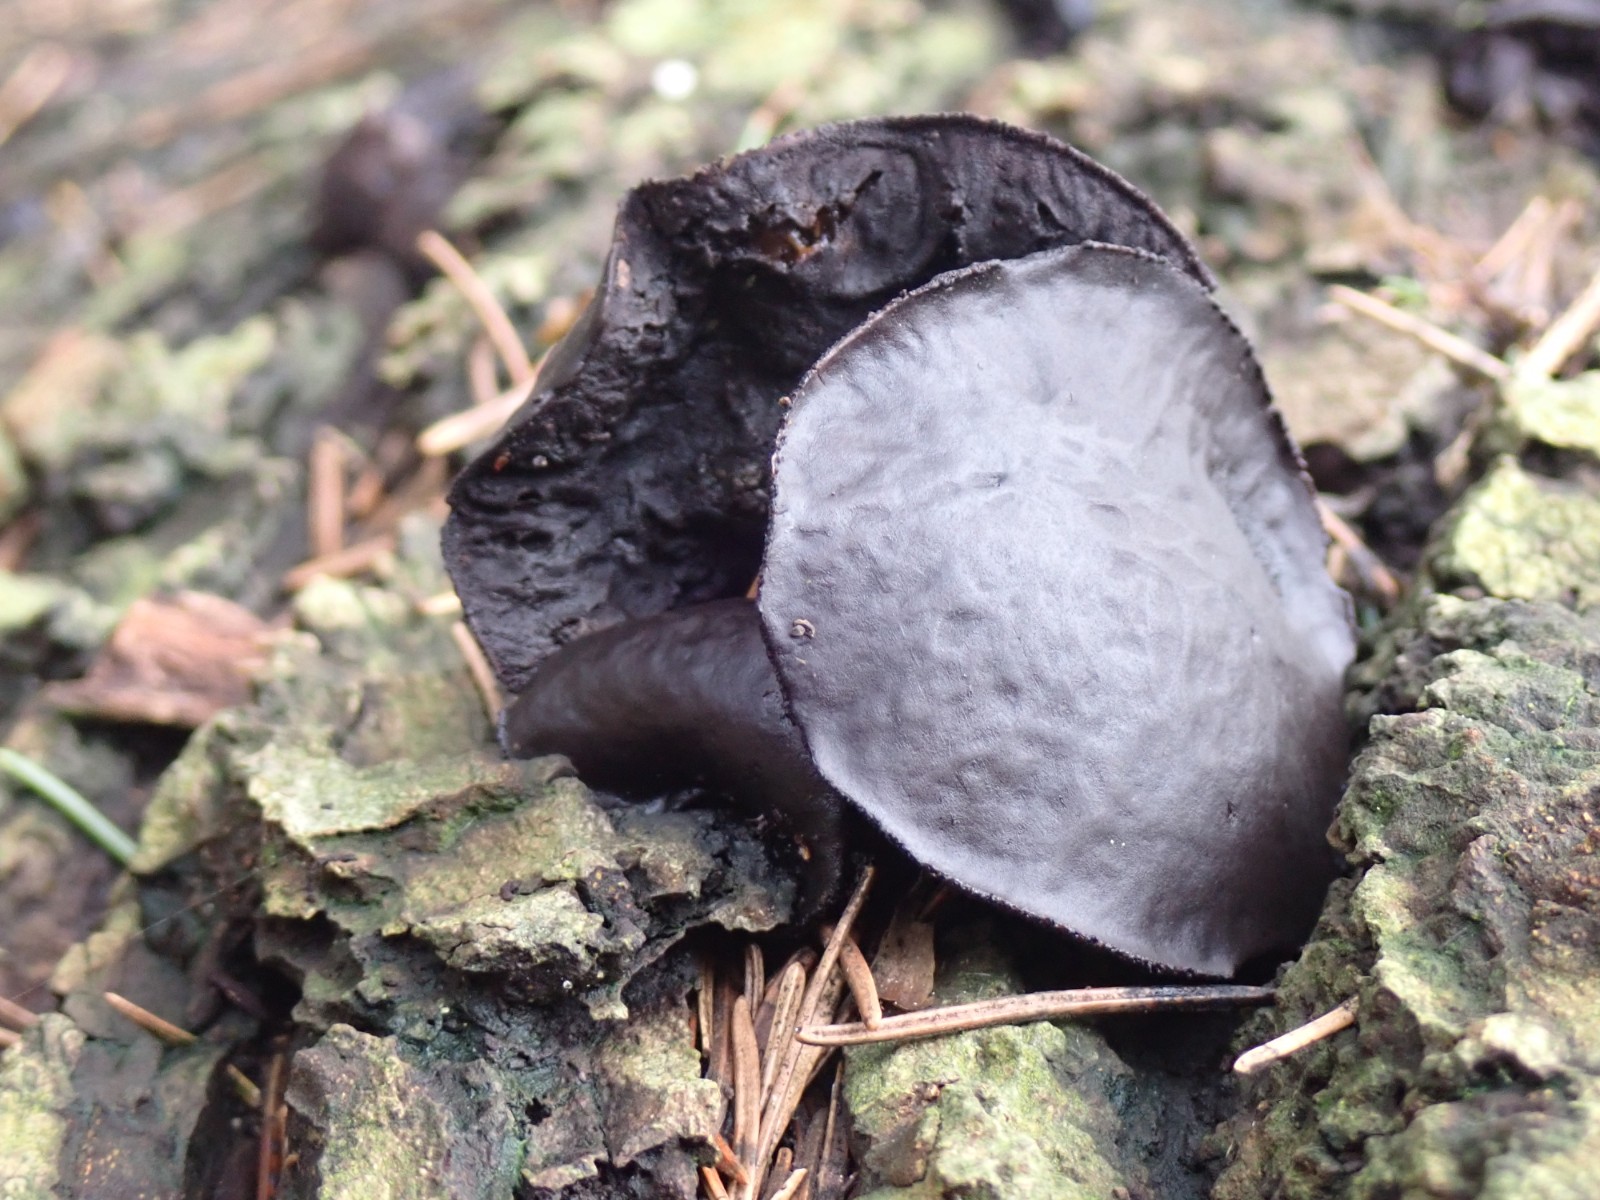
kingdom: Fungi
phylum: Ascomycota
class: Leotiomycetes
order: Phacidiales
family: Phacidiaceae
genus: Bulgaria
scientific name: Bulgaria inquinans
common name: afsmittende topsvamp
